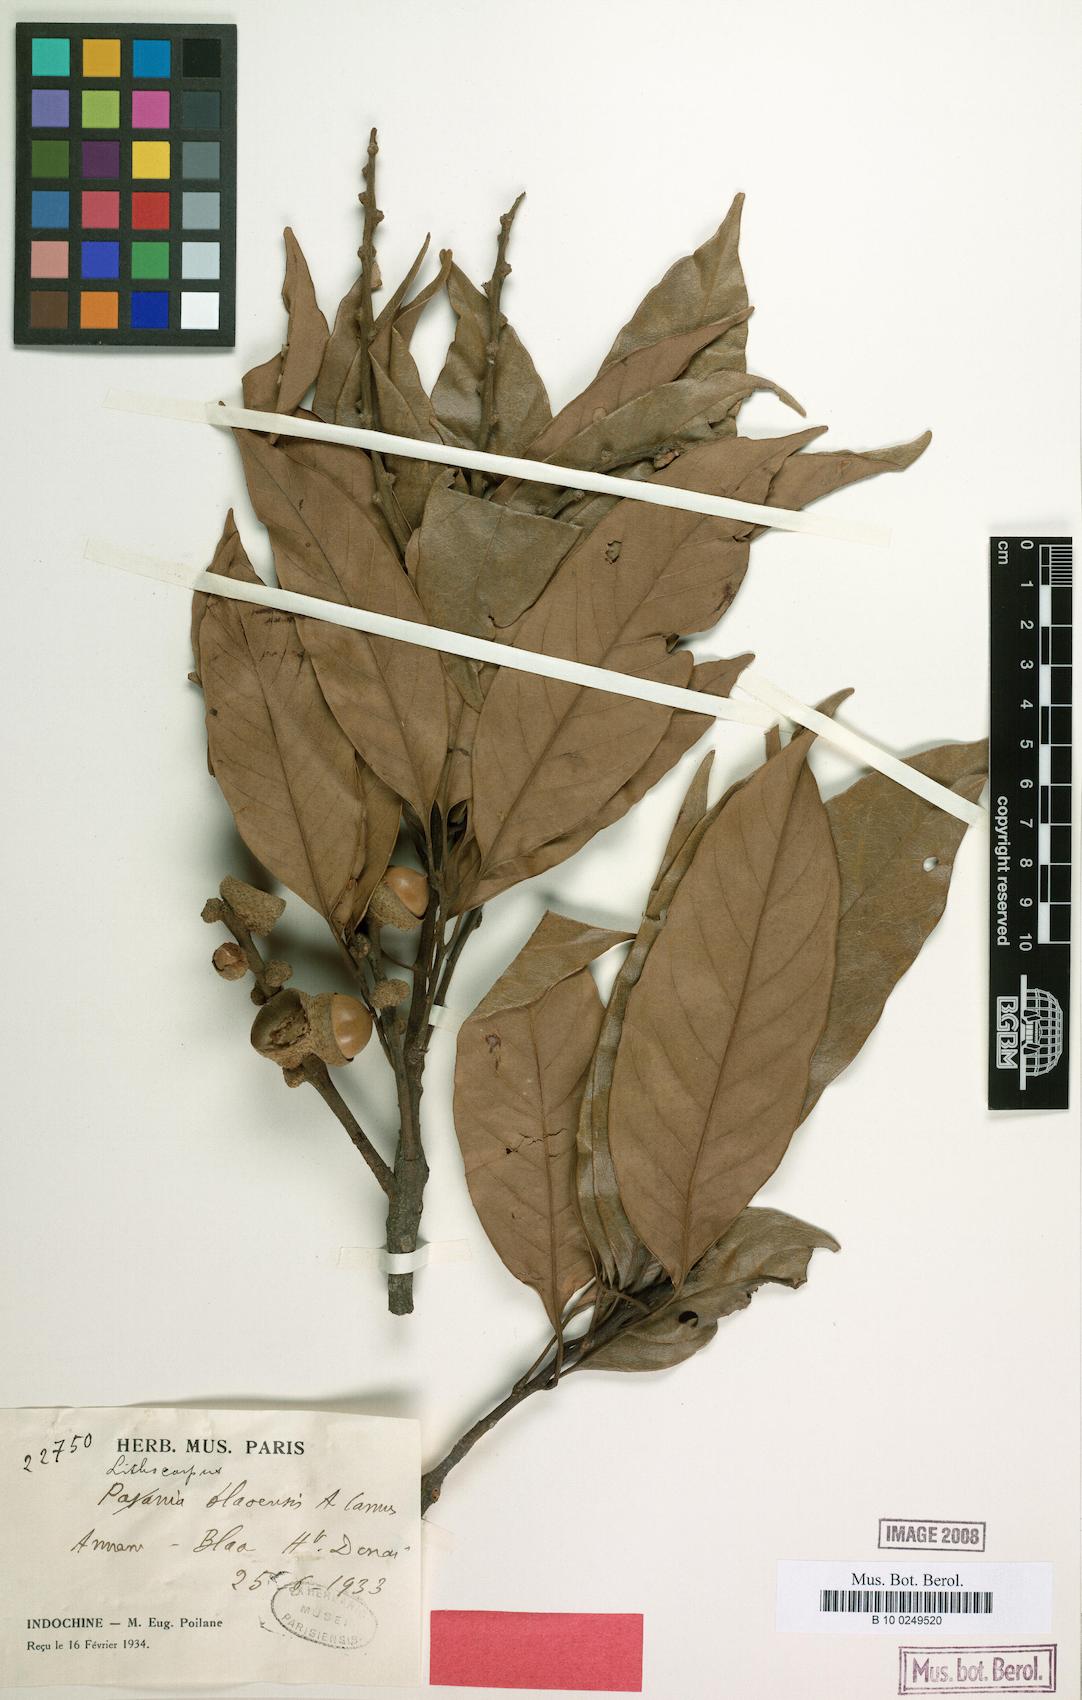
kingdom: Plantae
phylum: Tracheophyta
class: Magnoliopsida
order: Fagales
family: Fagaceae
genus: Lithocarpus
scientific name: Lithocarpus blaoensis
